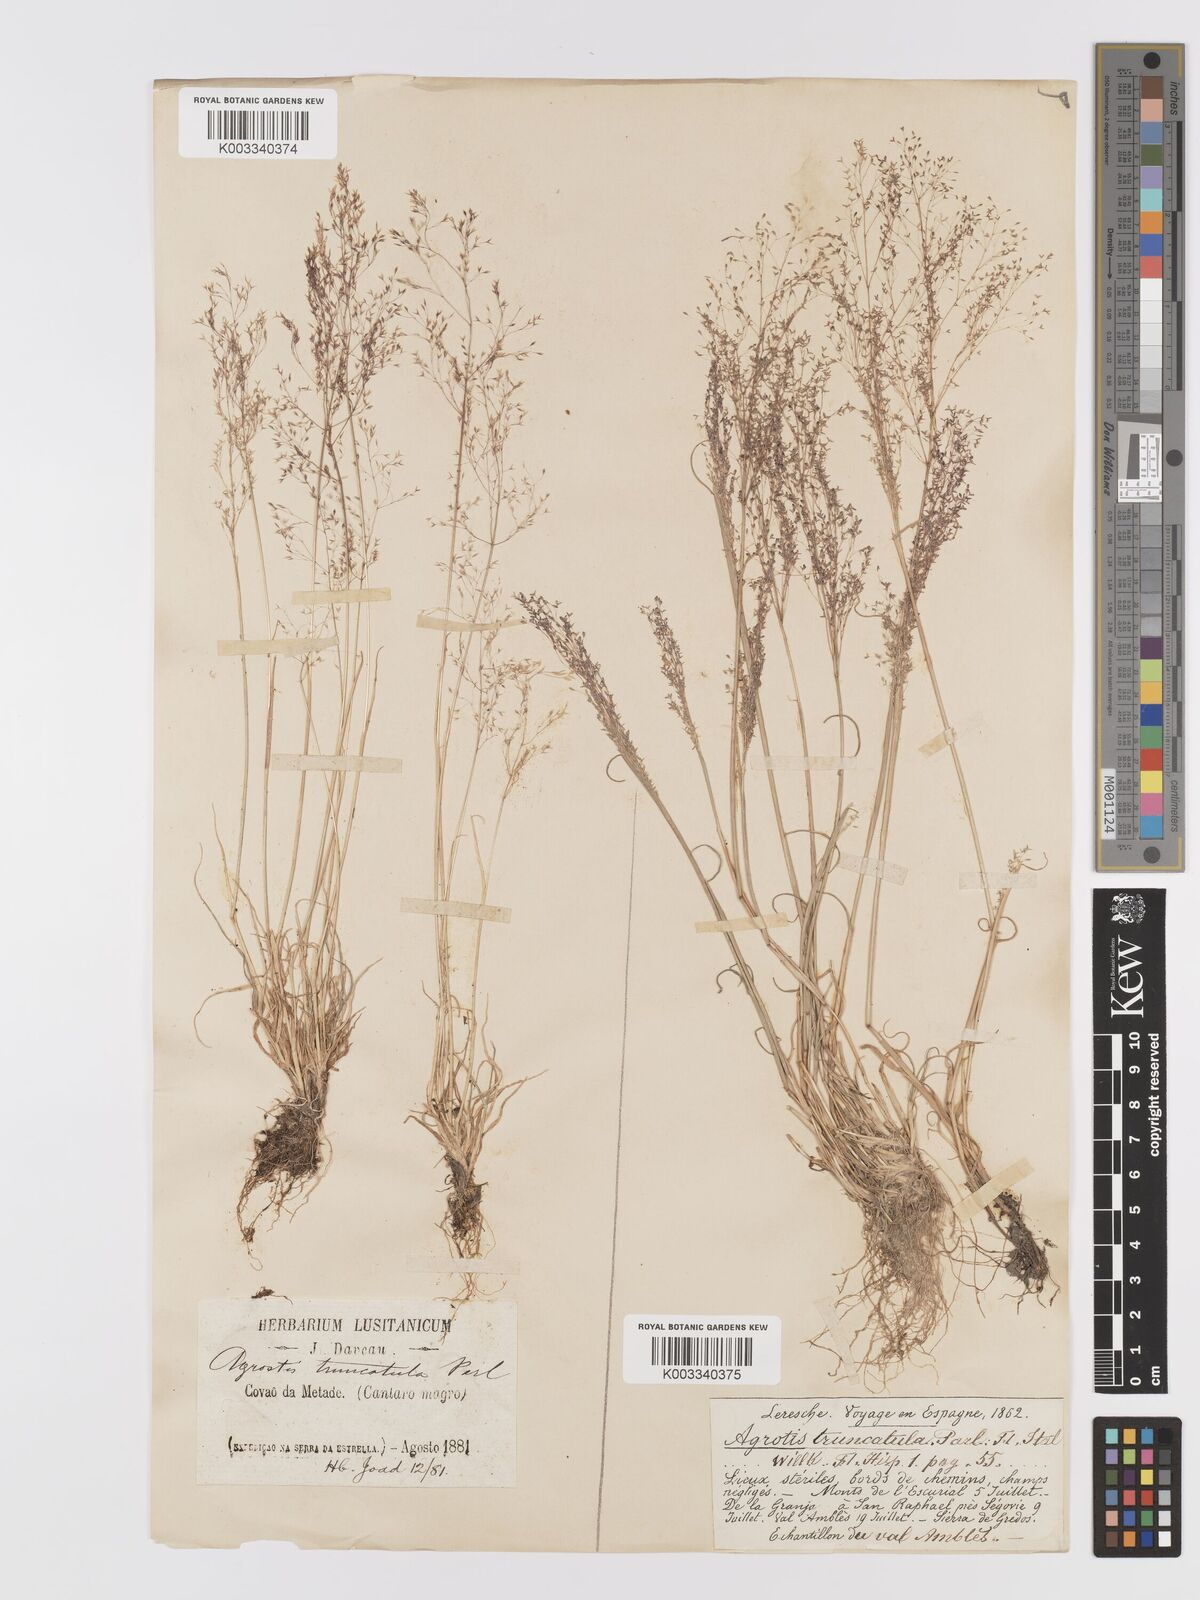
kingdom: Plantae
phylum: Tracheophyta
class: Liliopsida
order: Poales
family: Poaceae
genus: Agrostis
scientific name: Agrostis castellana
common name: Highland bent
